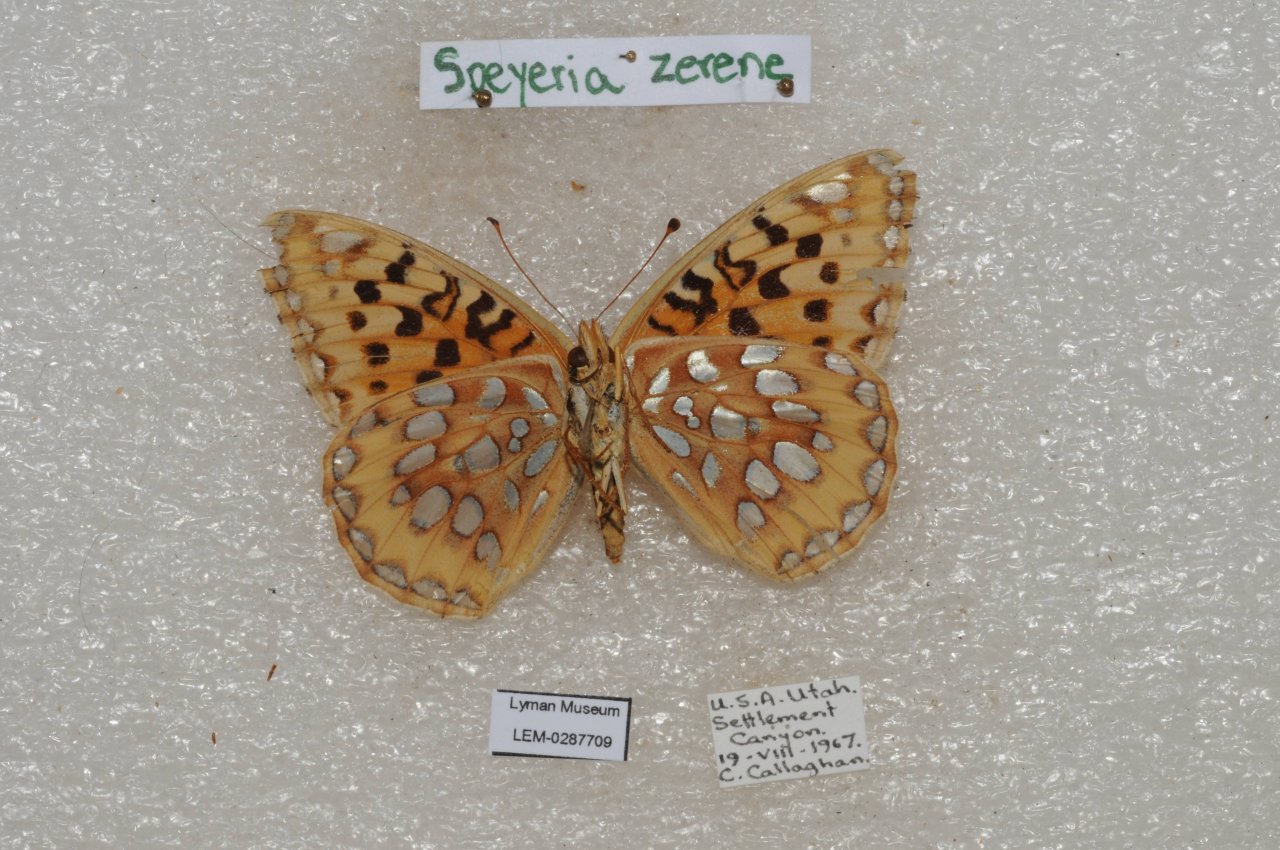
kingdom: Animalia
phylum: Arthropoda
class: Insecta
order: Lepidoptera
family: Nymphalidae
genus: Speyeria
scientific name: Speyeria zerene
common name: Zerene Fritillary
